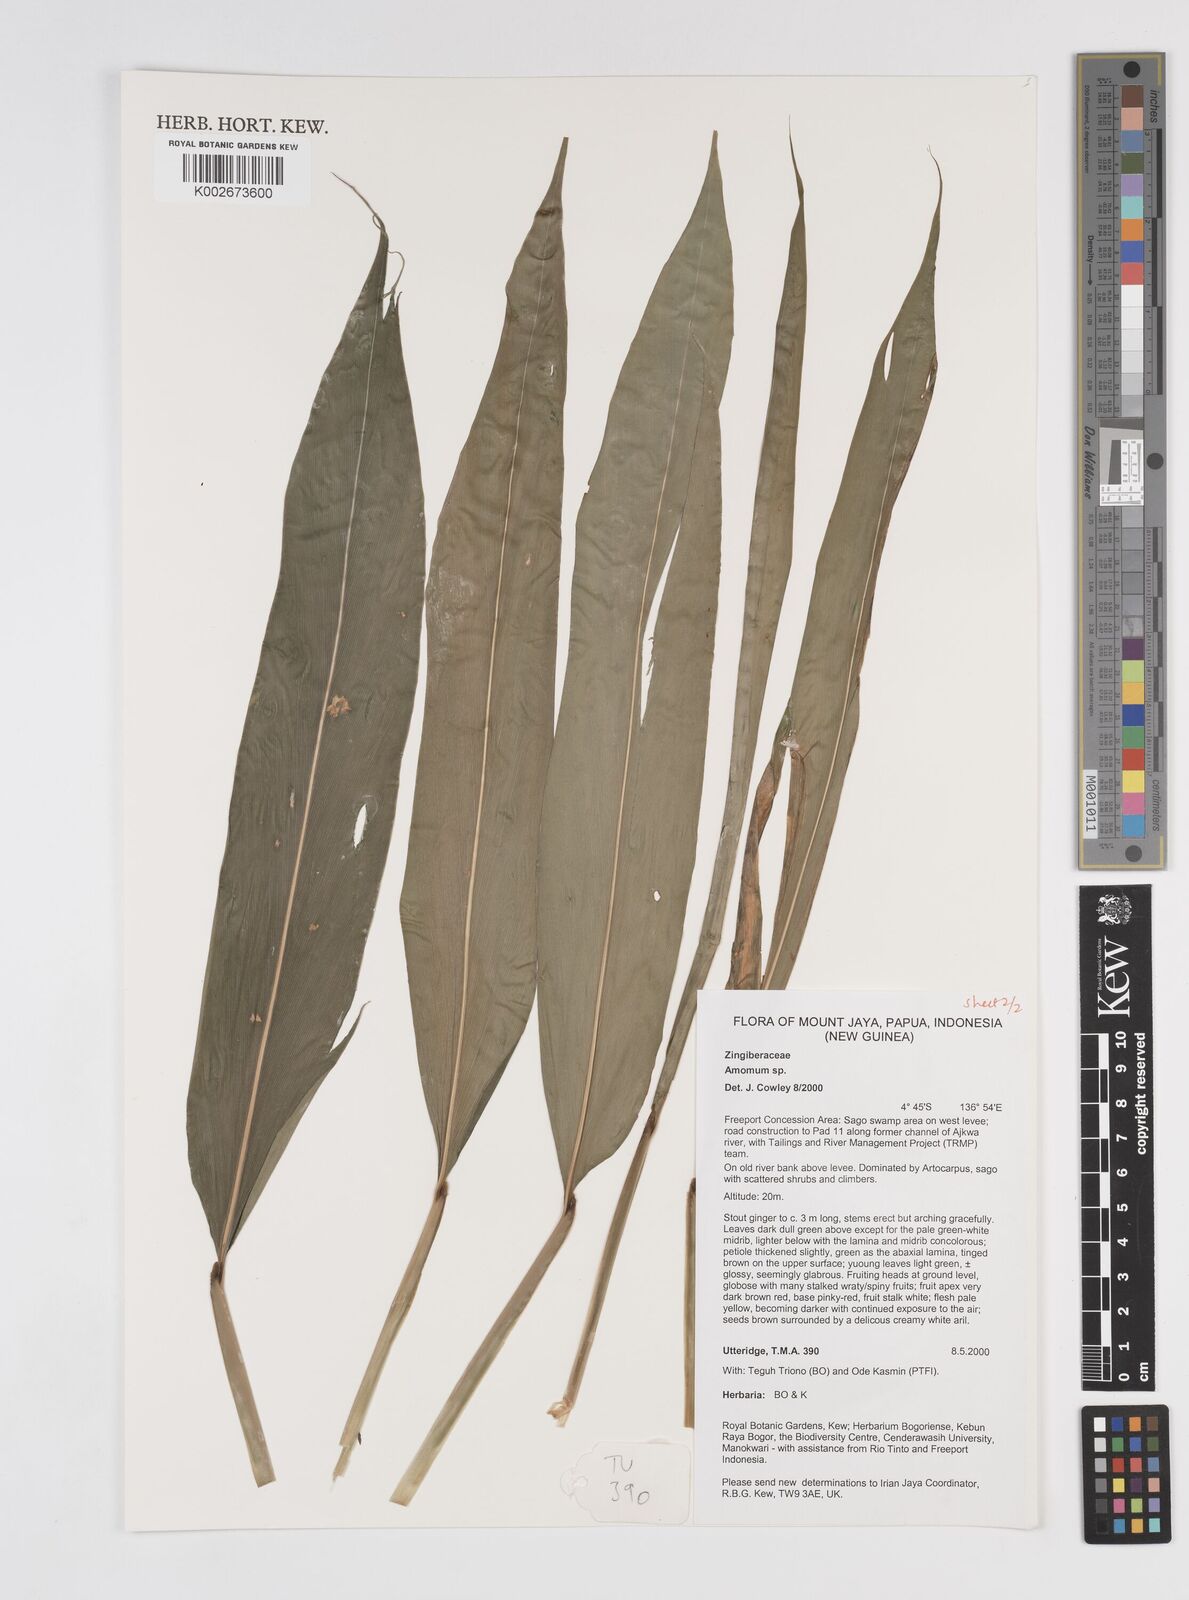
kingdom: Plantae
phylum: Tracheophyta
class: Liliopsida
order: Zingiberales
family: Zingiberaceae
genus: Amomum
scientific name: Amomum
